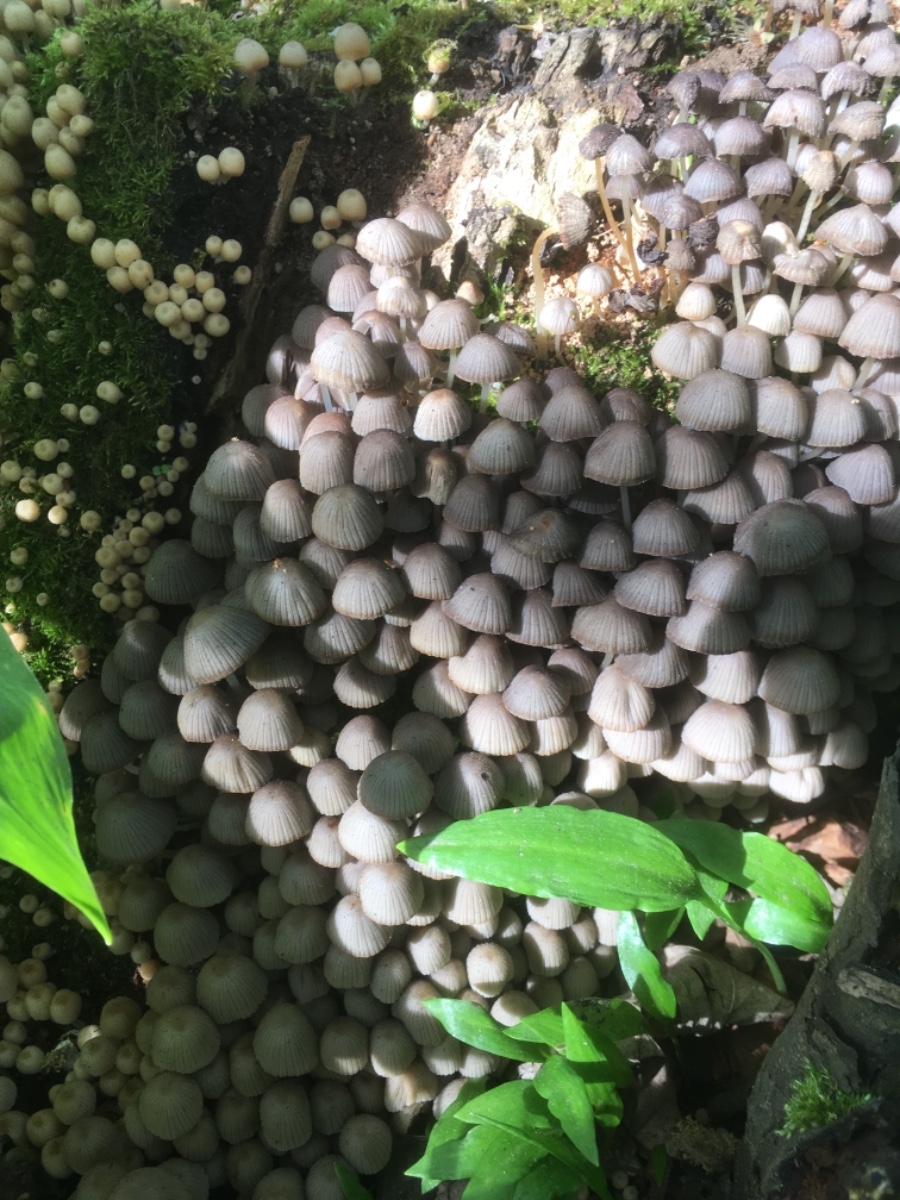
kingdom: Fungi
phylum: Basidiomycota
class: Agaricomycetes
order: Agaricales
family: Psathyrellaceae
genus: Coprinellus
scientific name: Coprinellus disseminatus
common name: bredsået blækhat
